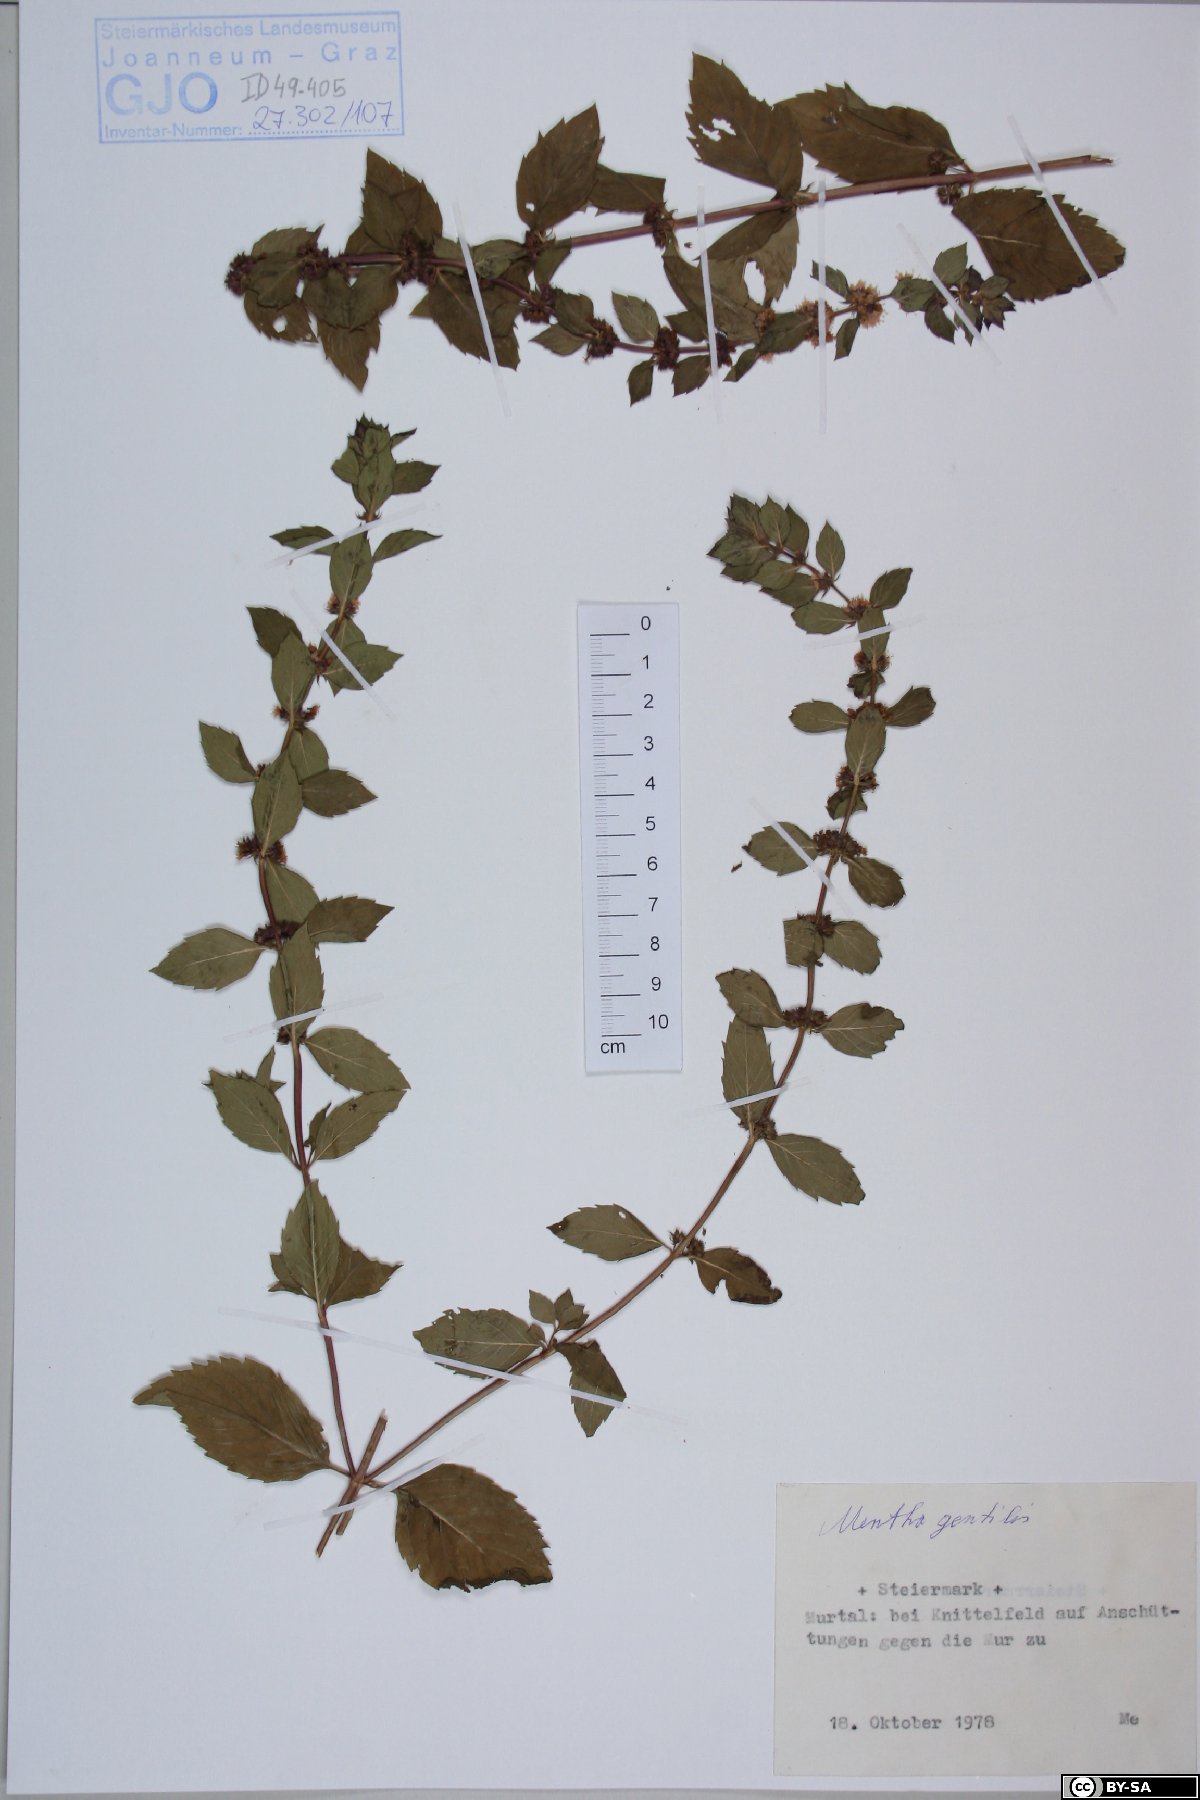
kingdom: Plantae
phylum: Tracheophyta
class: Magnoliopsida
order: Lamiales
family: Lamiaceae
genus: Mentha
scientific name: Mentha arvensis
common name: Corn mint
